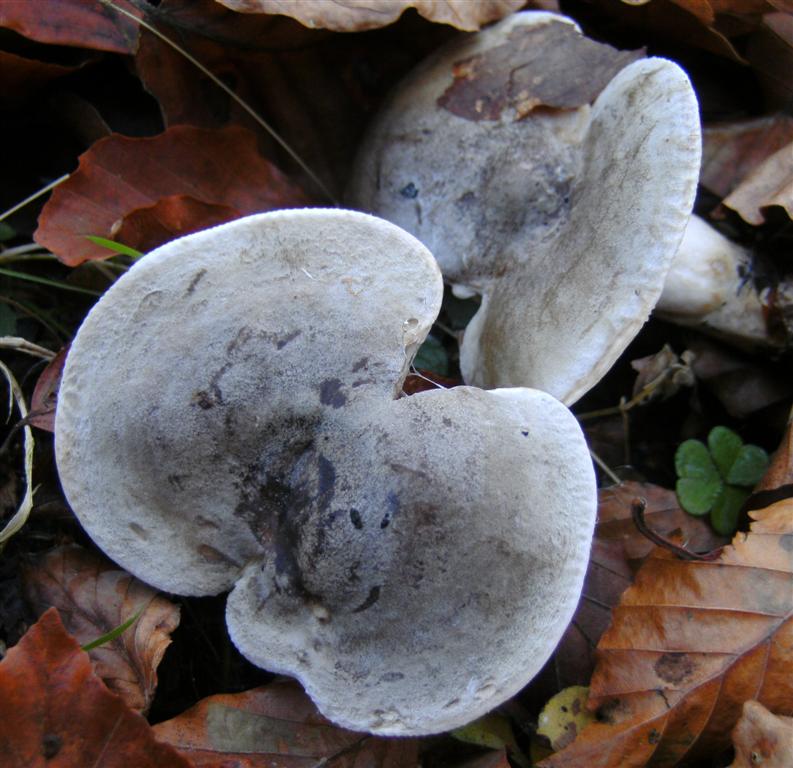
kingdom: Fungi
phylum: Basidiomycota
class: Agaricomycetes
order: Russulales
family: Russulaceae
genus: Lactarius
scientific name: Lactarius fluens
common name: lysrandet mælkehat
